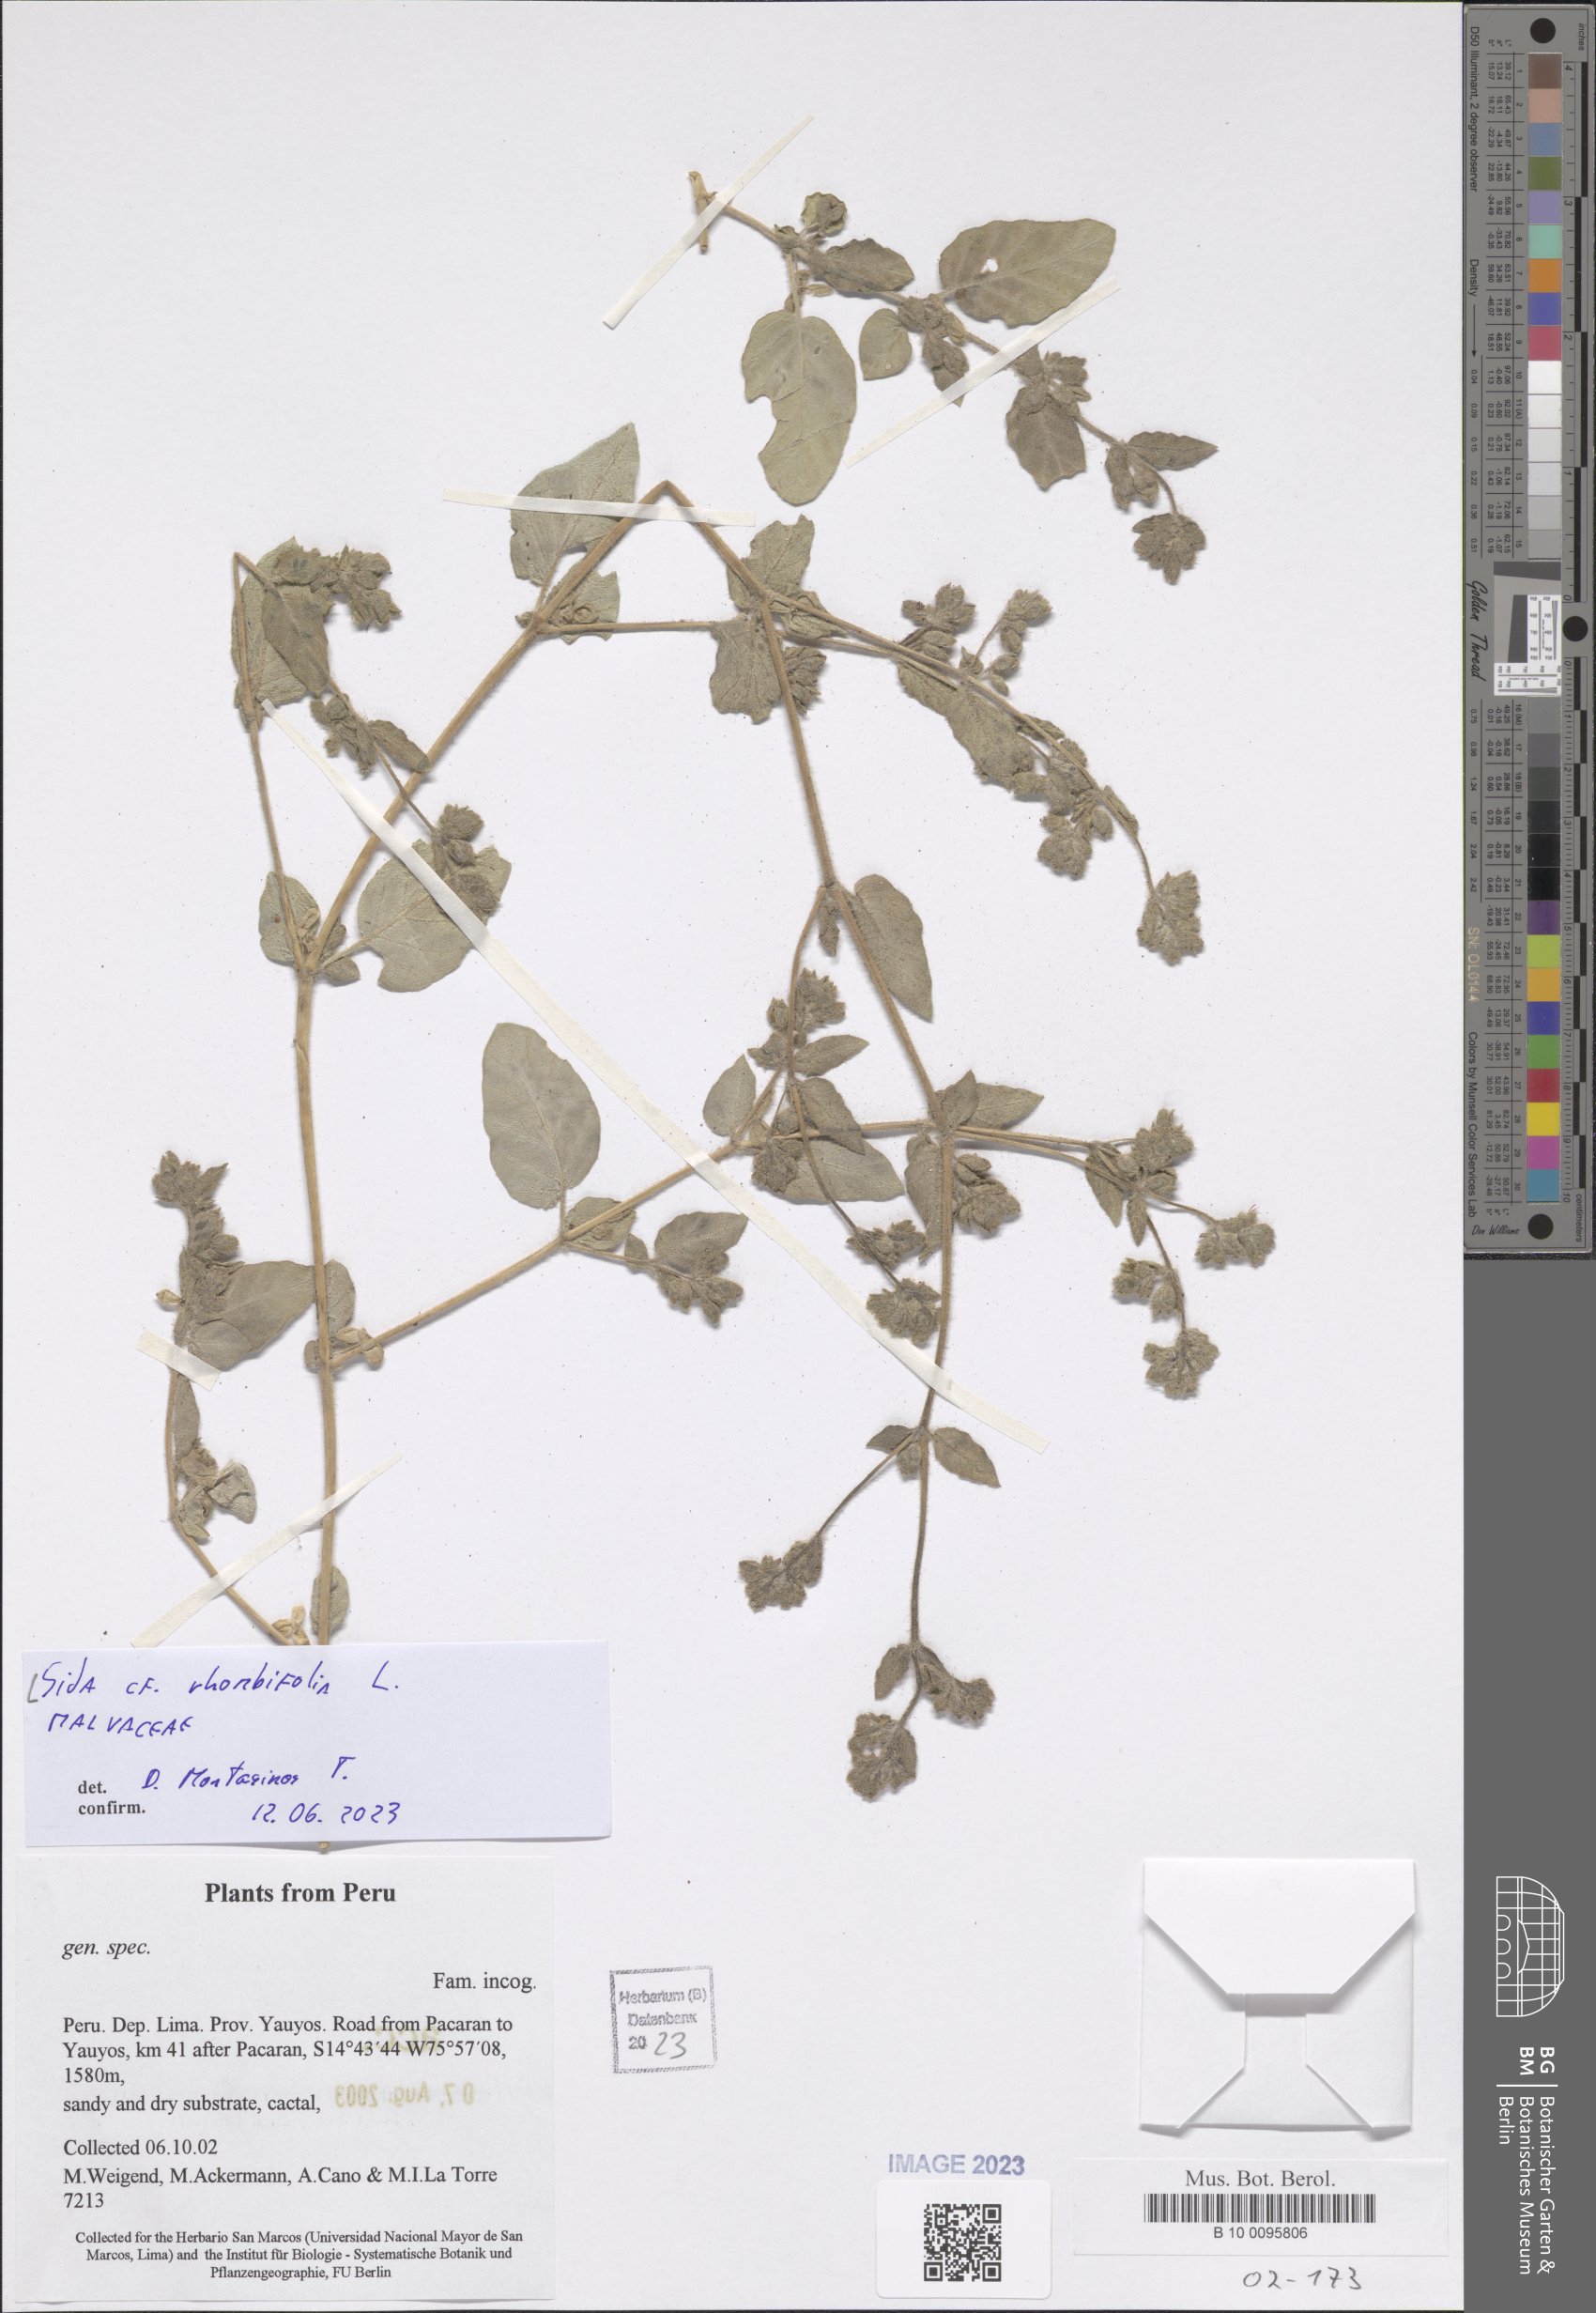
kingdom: Plantae
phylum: Tracheophyta
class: Magnoliopsida
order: Malvales
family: Malvaceae
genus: Sida
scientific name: Sida rhombifolia
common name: Queensland-hemp
